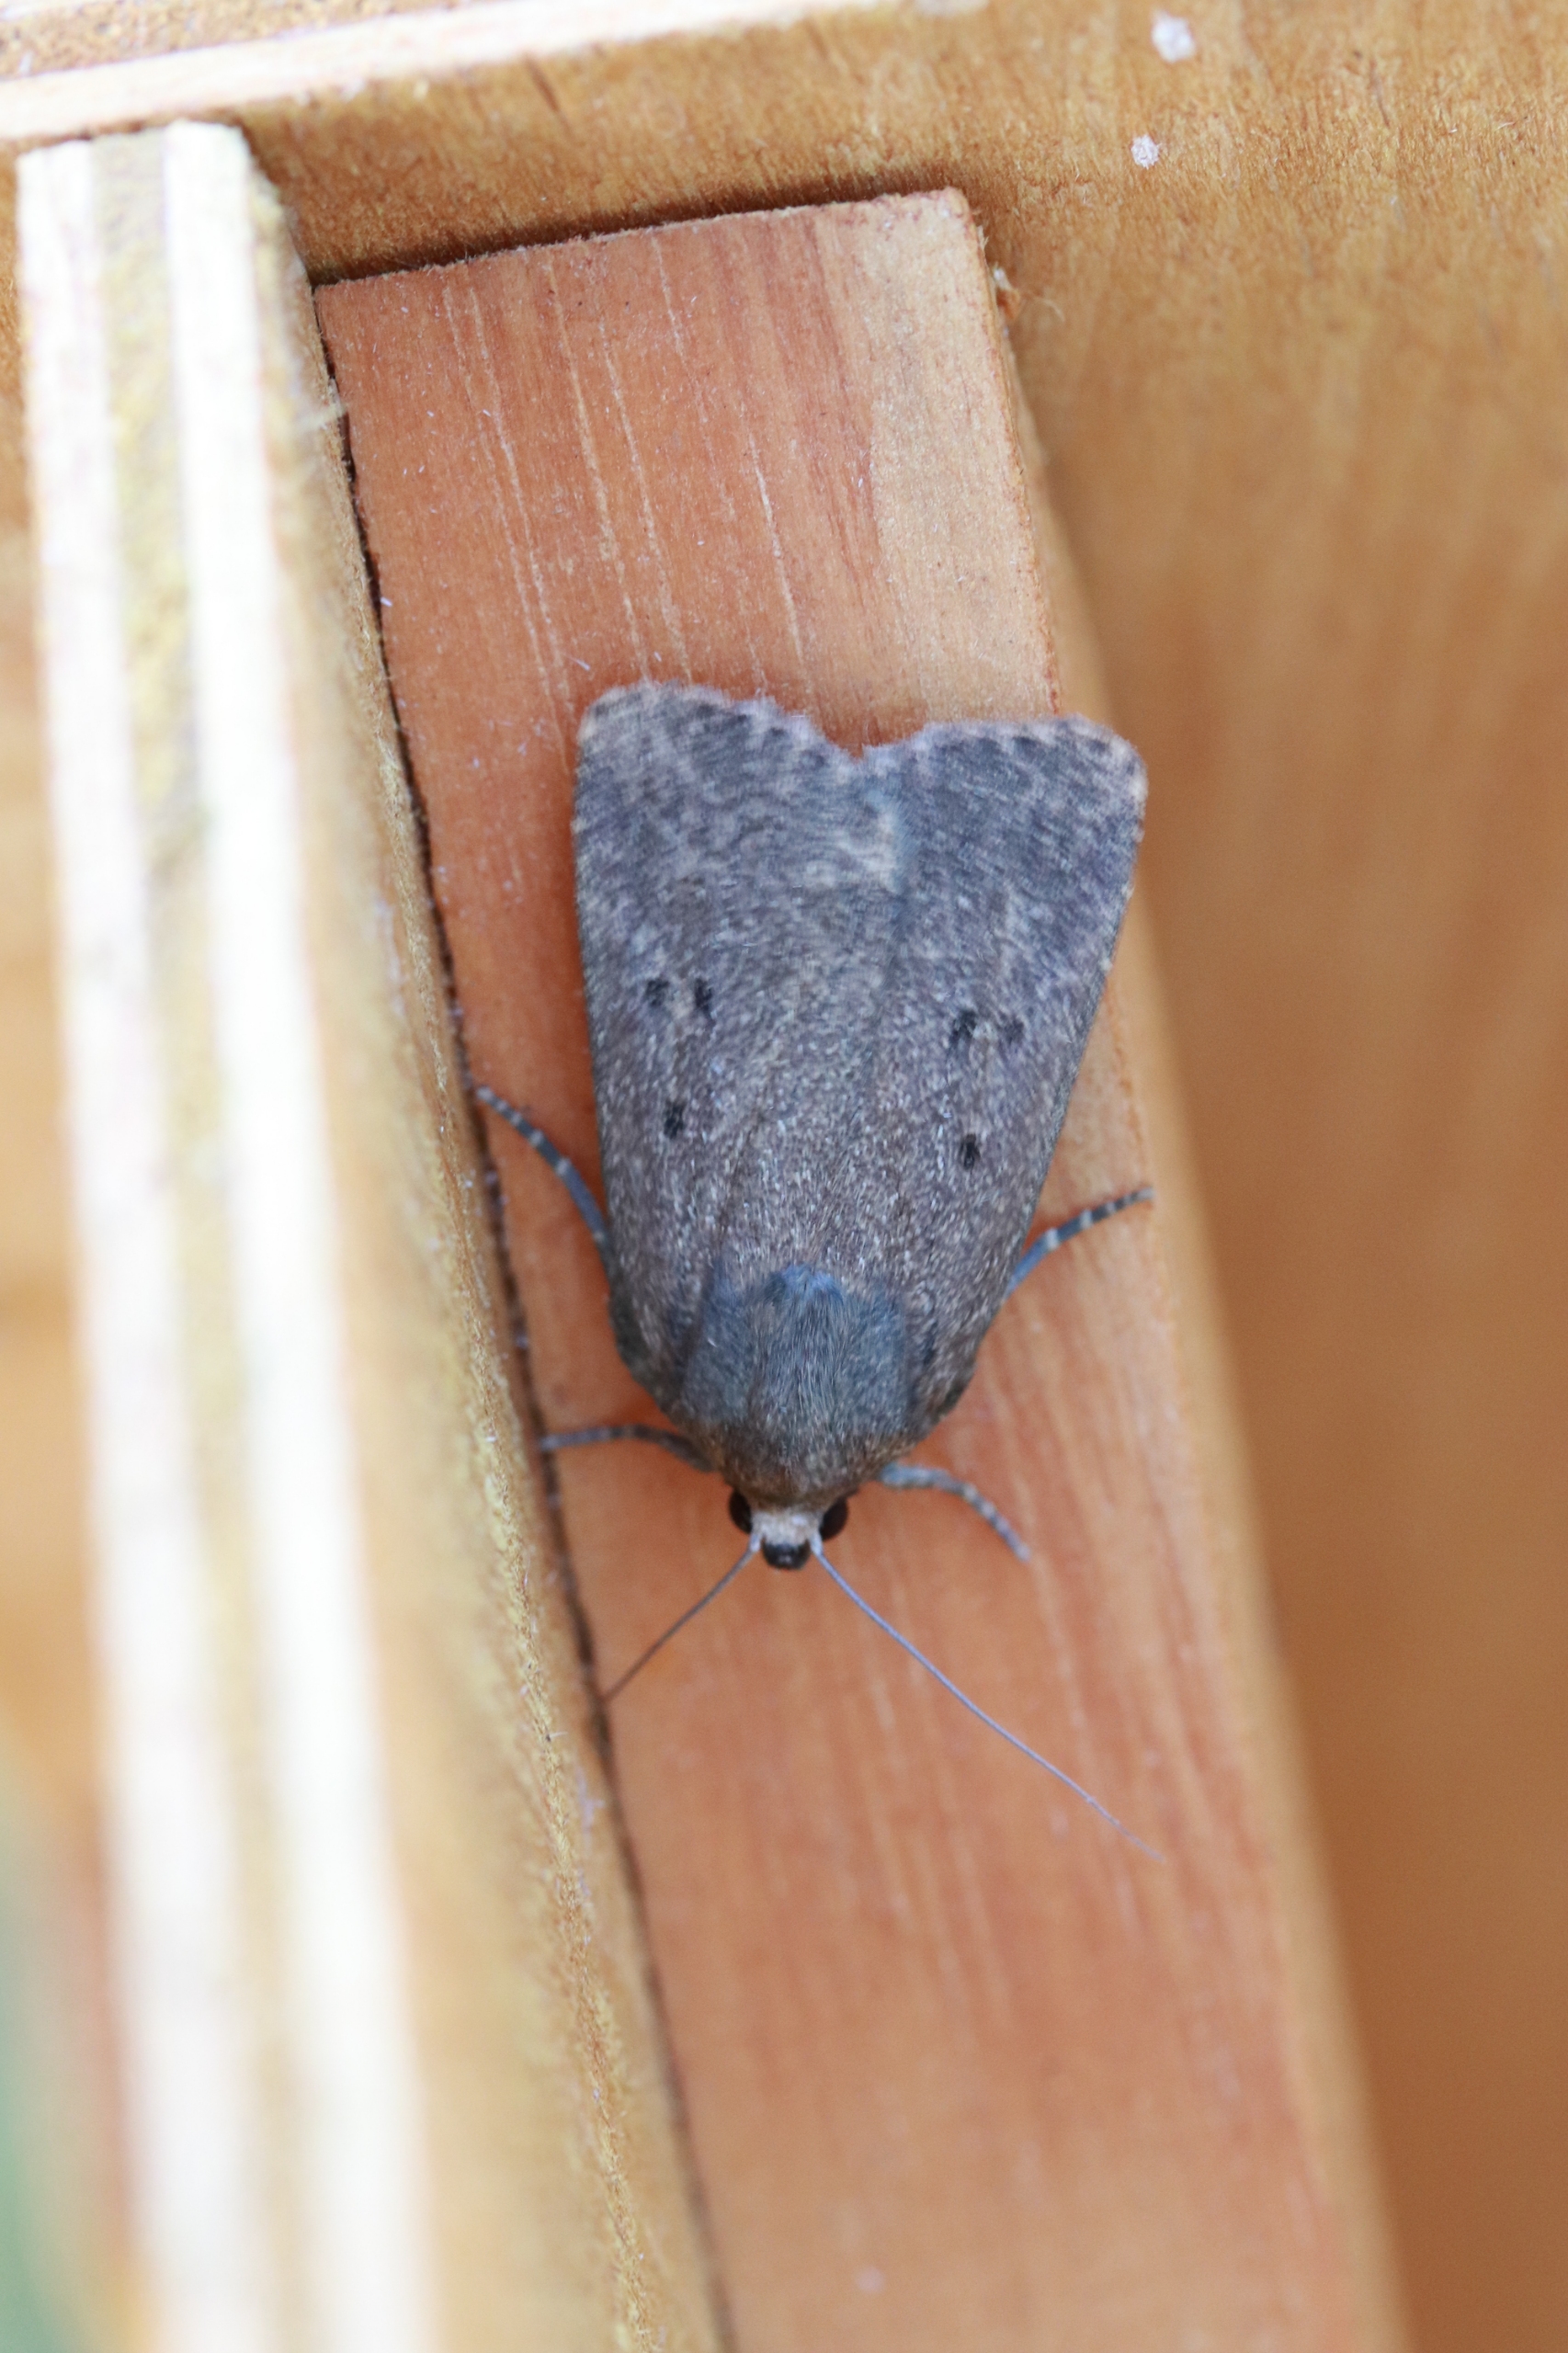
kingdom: Animalia
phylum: Arthropoda
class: Insecta
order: Lepidoptera
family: Noctuidae
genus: Amphipyra
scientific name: Amphipyra tragopoginis
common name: Blyantsugle
